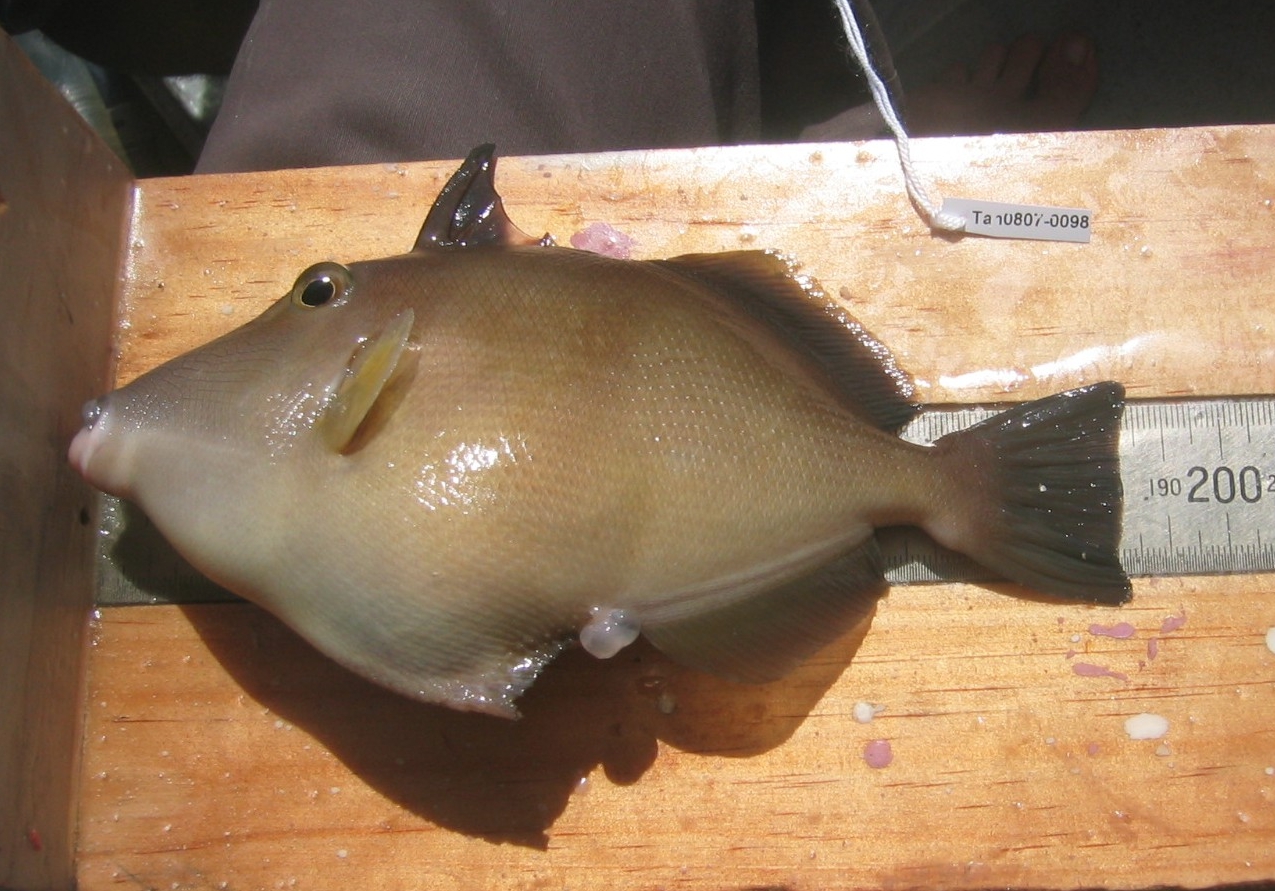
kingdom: Animalia
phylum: Chordata
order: Tetraodontiformes
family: Balistidae
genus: Sufflamen
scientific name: Sufflamen fraenatum
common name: Bridle triggerfish
